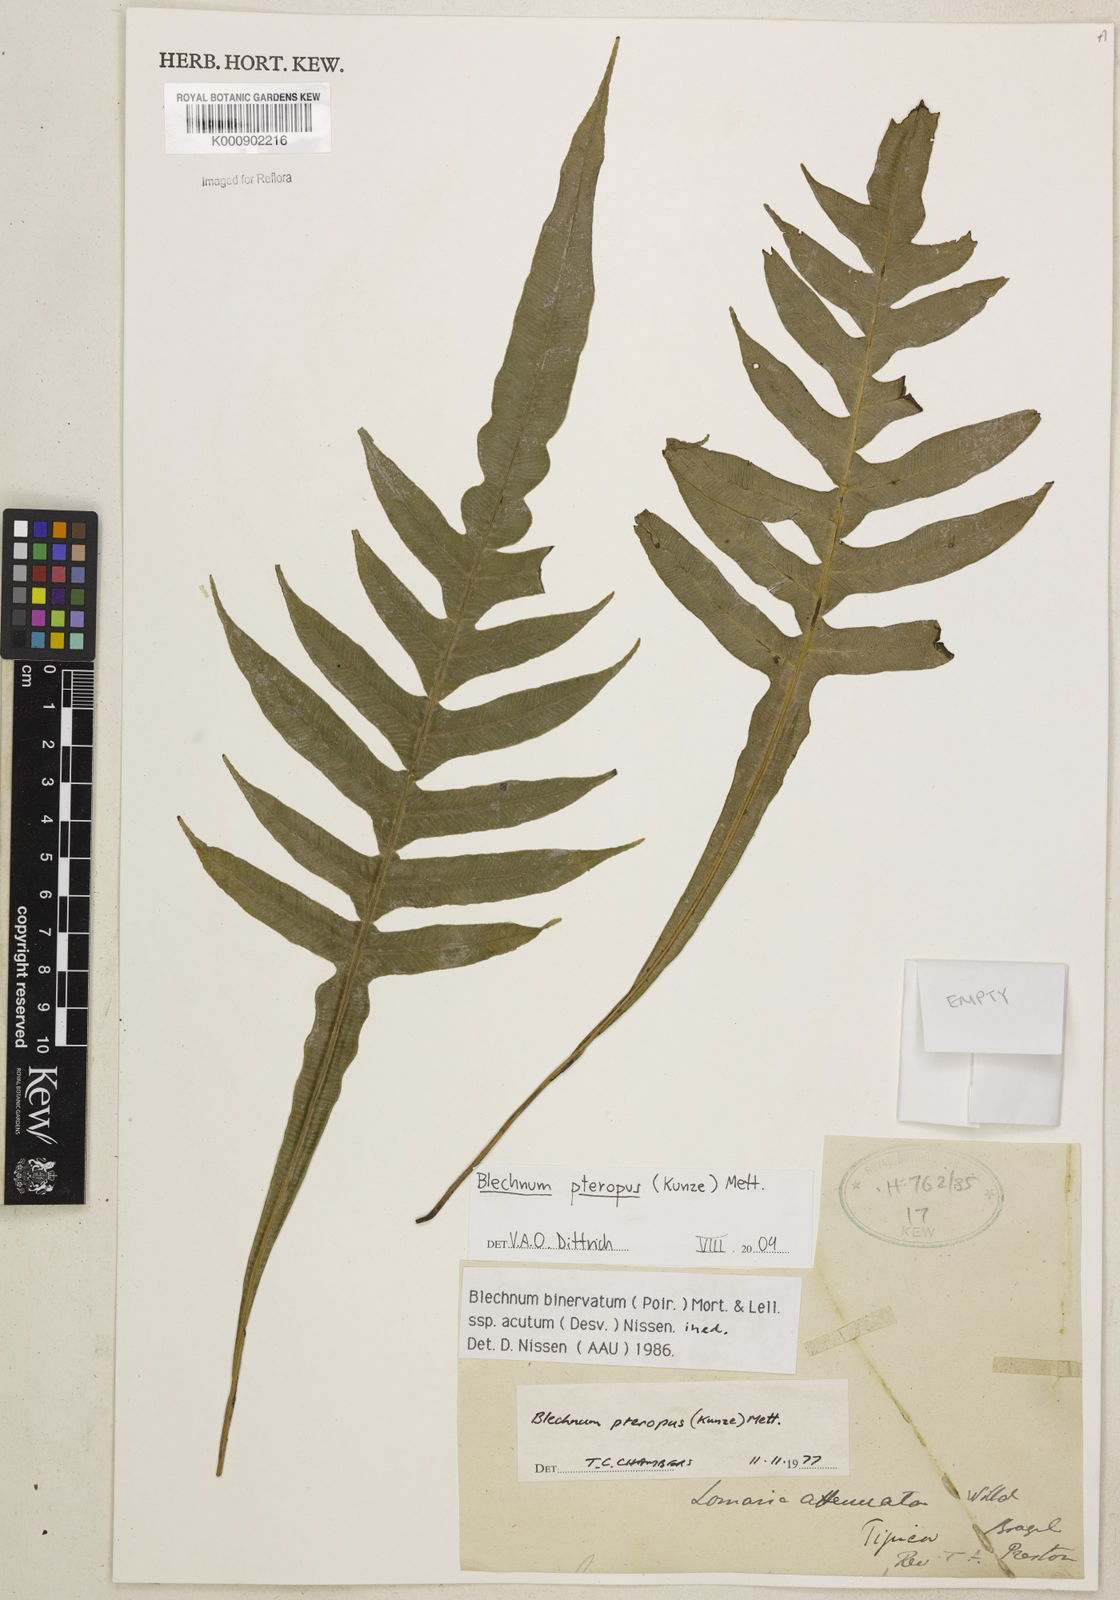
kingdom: Plantae
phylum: Tracheophyta
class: Polypodiopsida
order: Polypodiales
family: Blechnaceae
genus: Lomaridium
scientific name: Lomaridium pteropus
